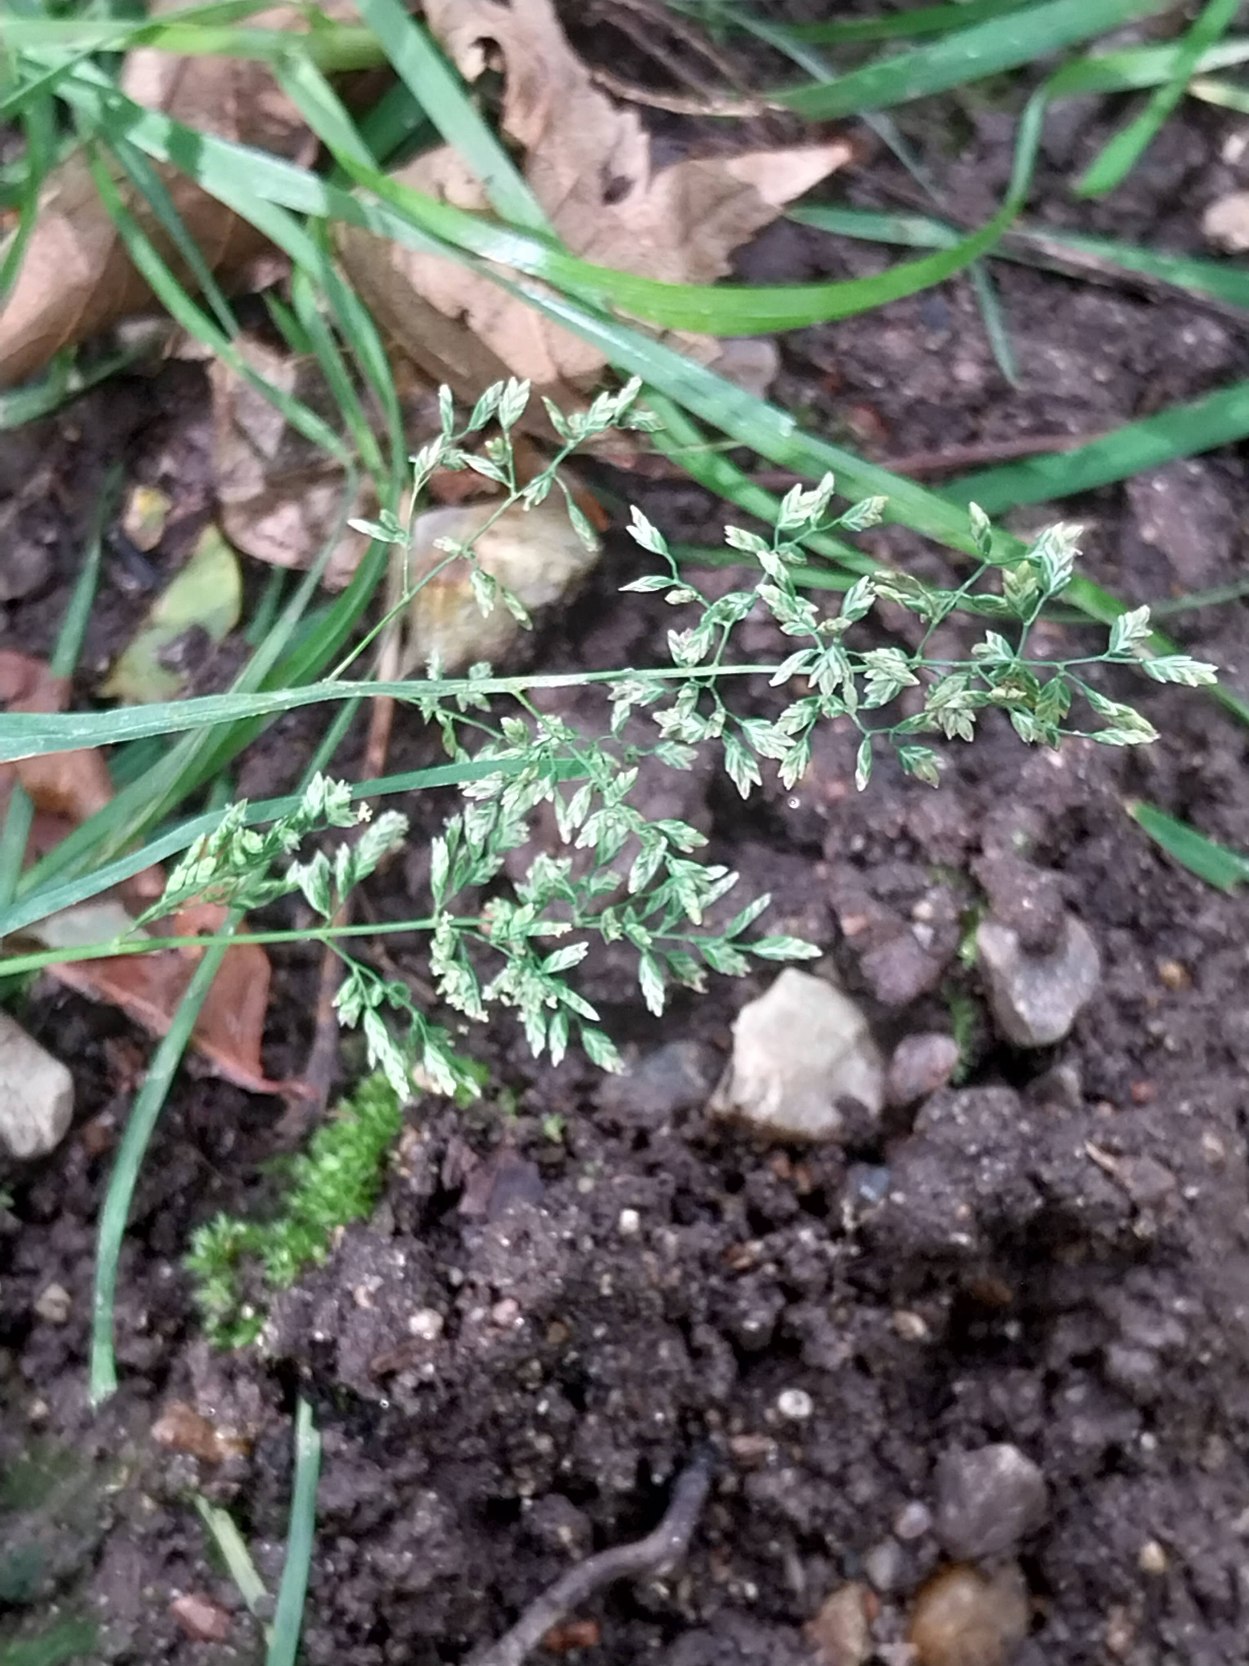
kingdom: Plantae
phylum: Tracheophyta
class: Liliopsida
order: Poales
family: Poaceae
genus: Poa
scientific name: Poa annua
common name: Enårig rapgræs
